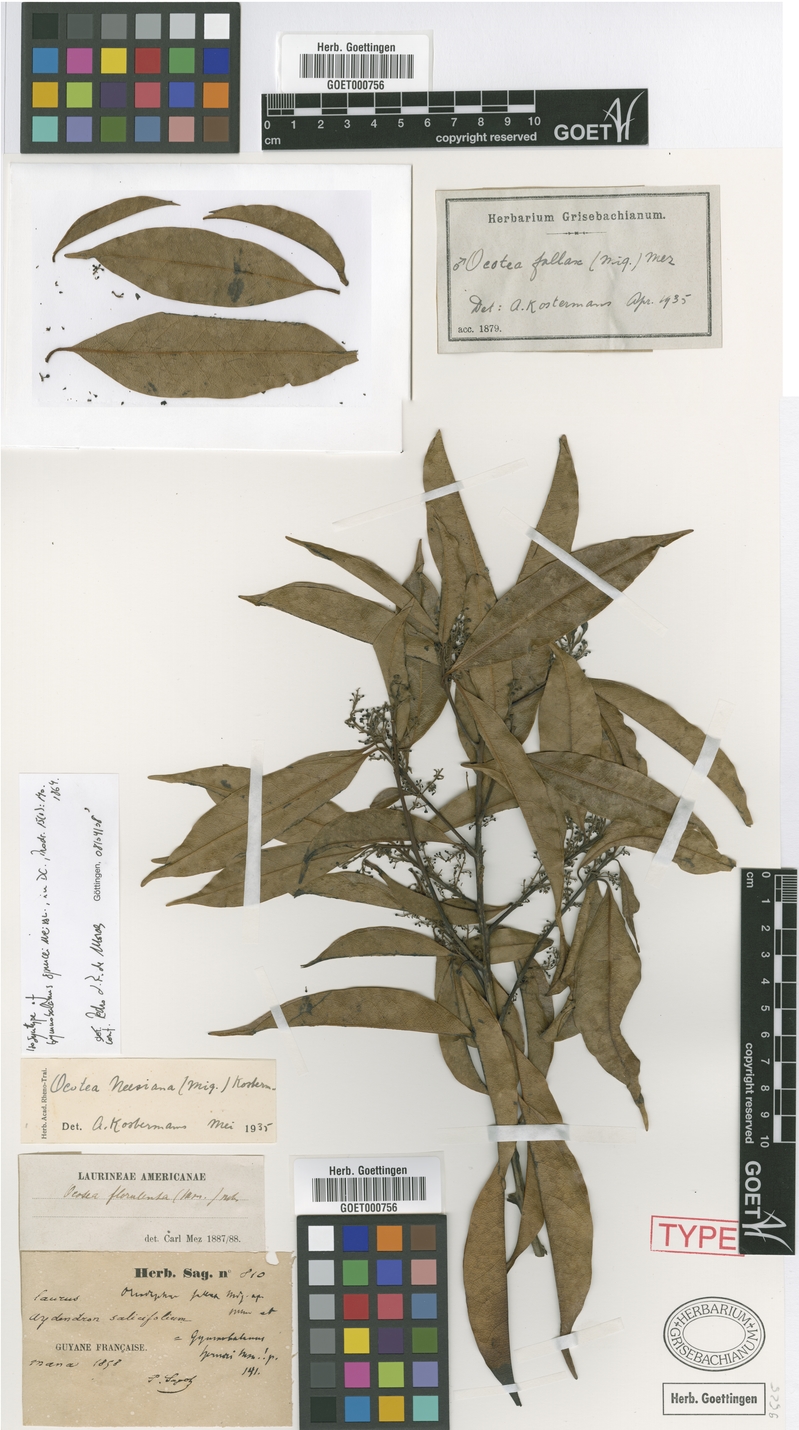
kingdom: Plantae
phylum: Tracheophyta
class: Magnoliopsida
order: Laurales
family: Lauraceae
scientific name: Lauraceae
